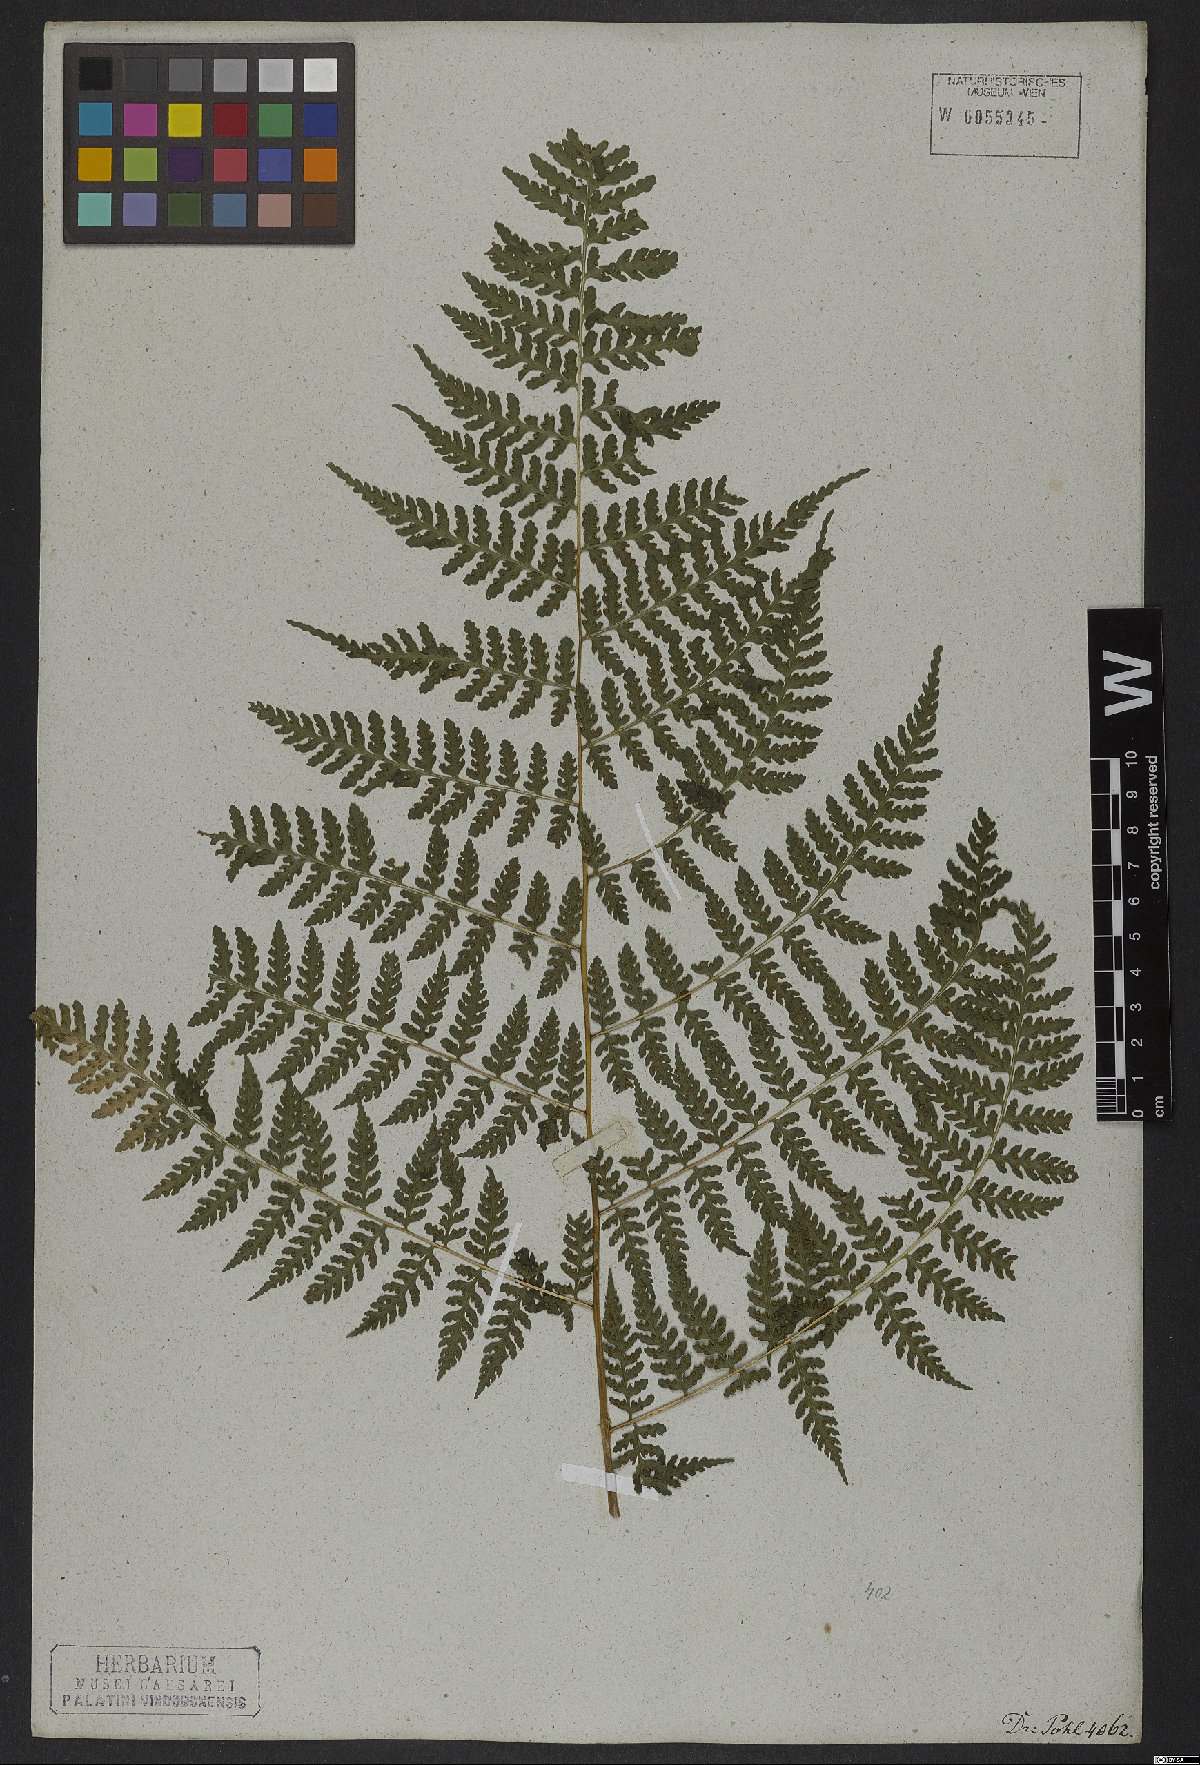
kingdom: Plantae
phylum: Tracheophyta
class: Polypodiopsida
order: Polypodiales
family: Dennstaedtiaceae
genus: Mucura
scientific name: Mucura globulifera
